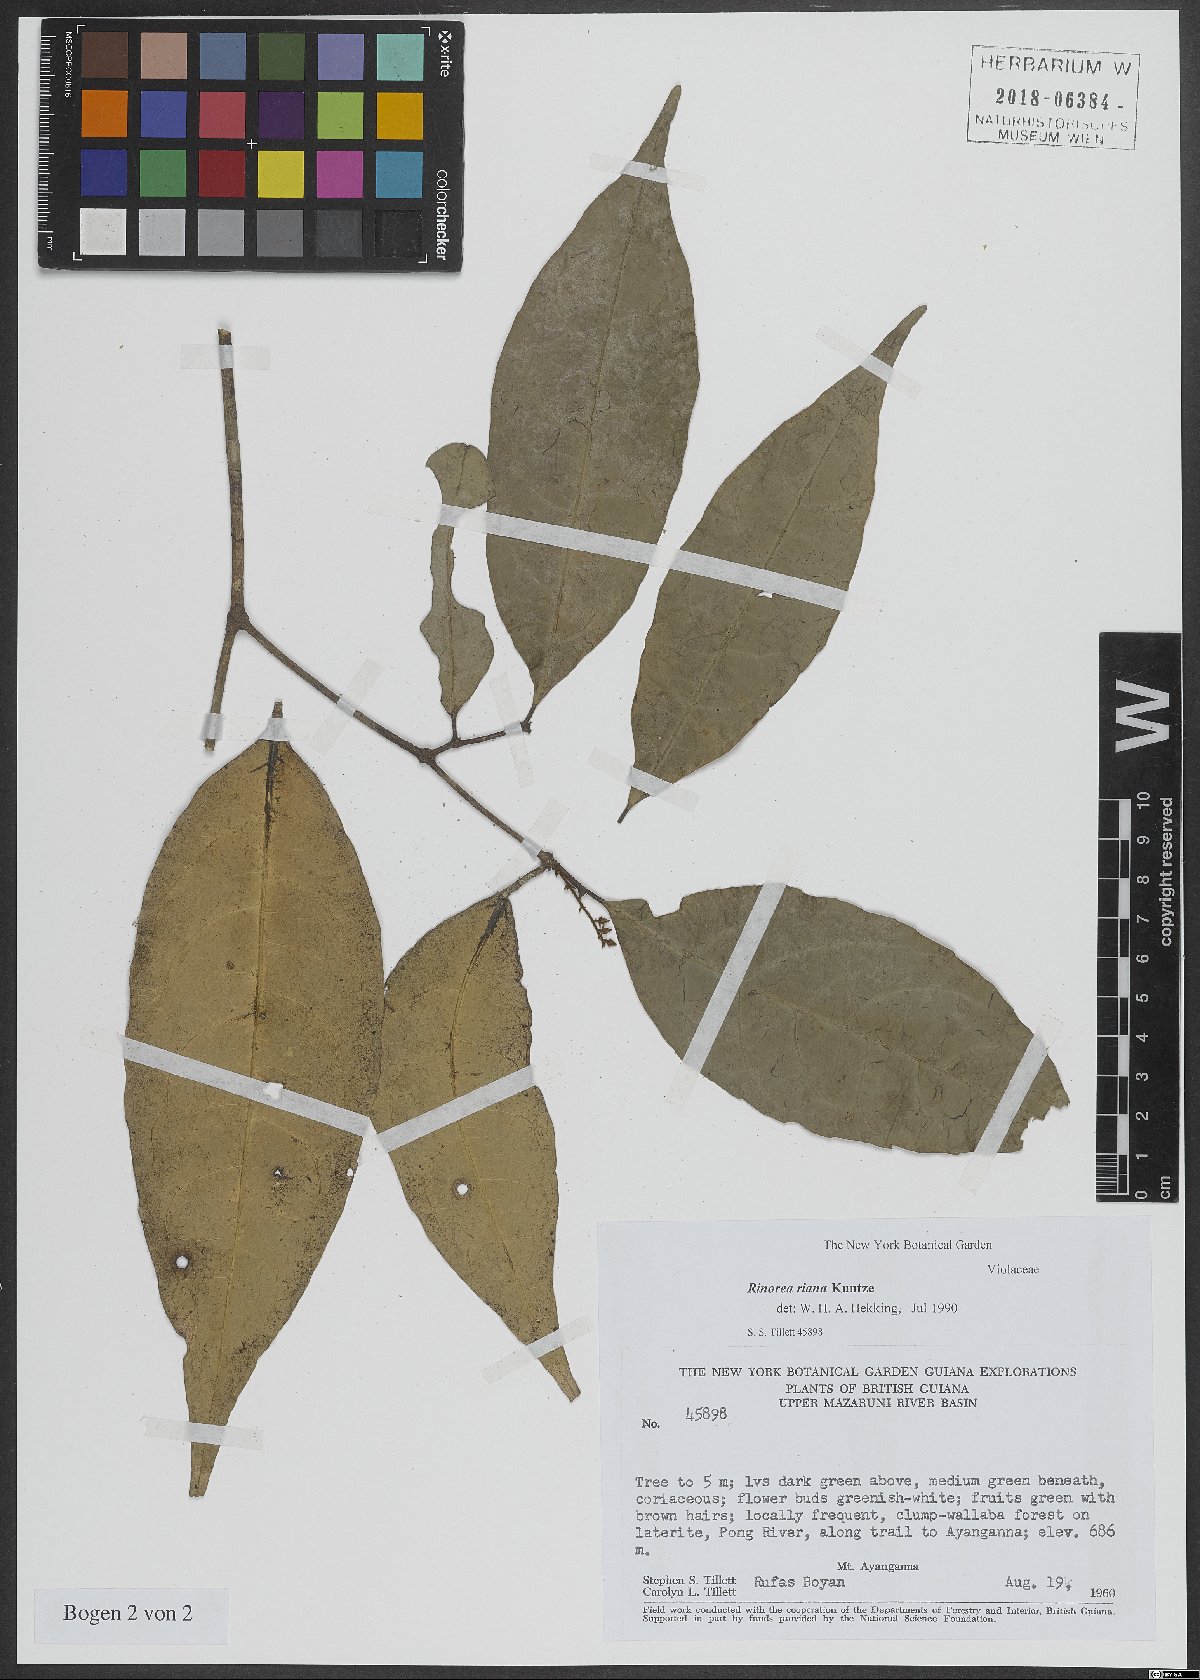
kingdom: Plantae
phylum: Tracheophyta
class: Magnoliopsida
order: Malpighiales
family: Violaceae
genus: Rinorea
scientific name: Rinorea
